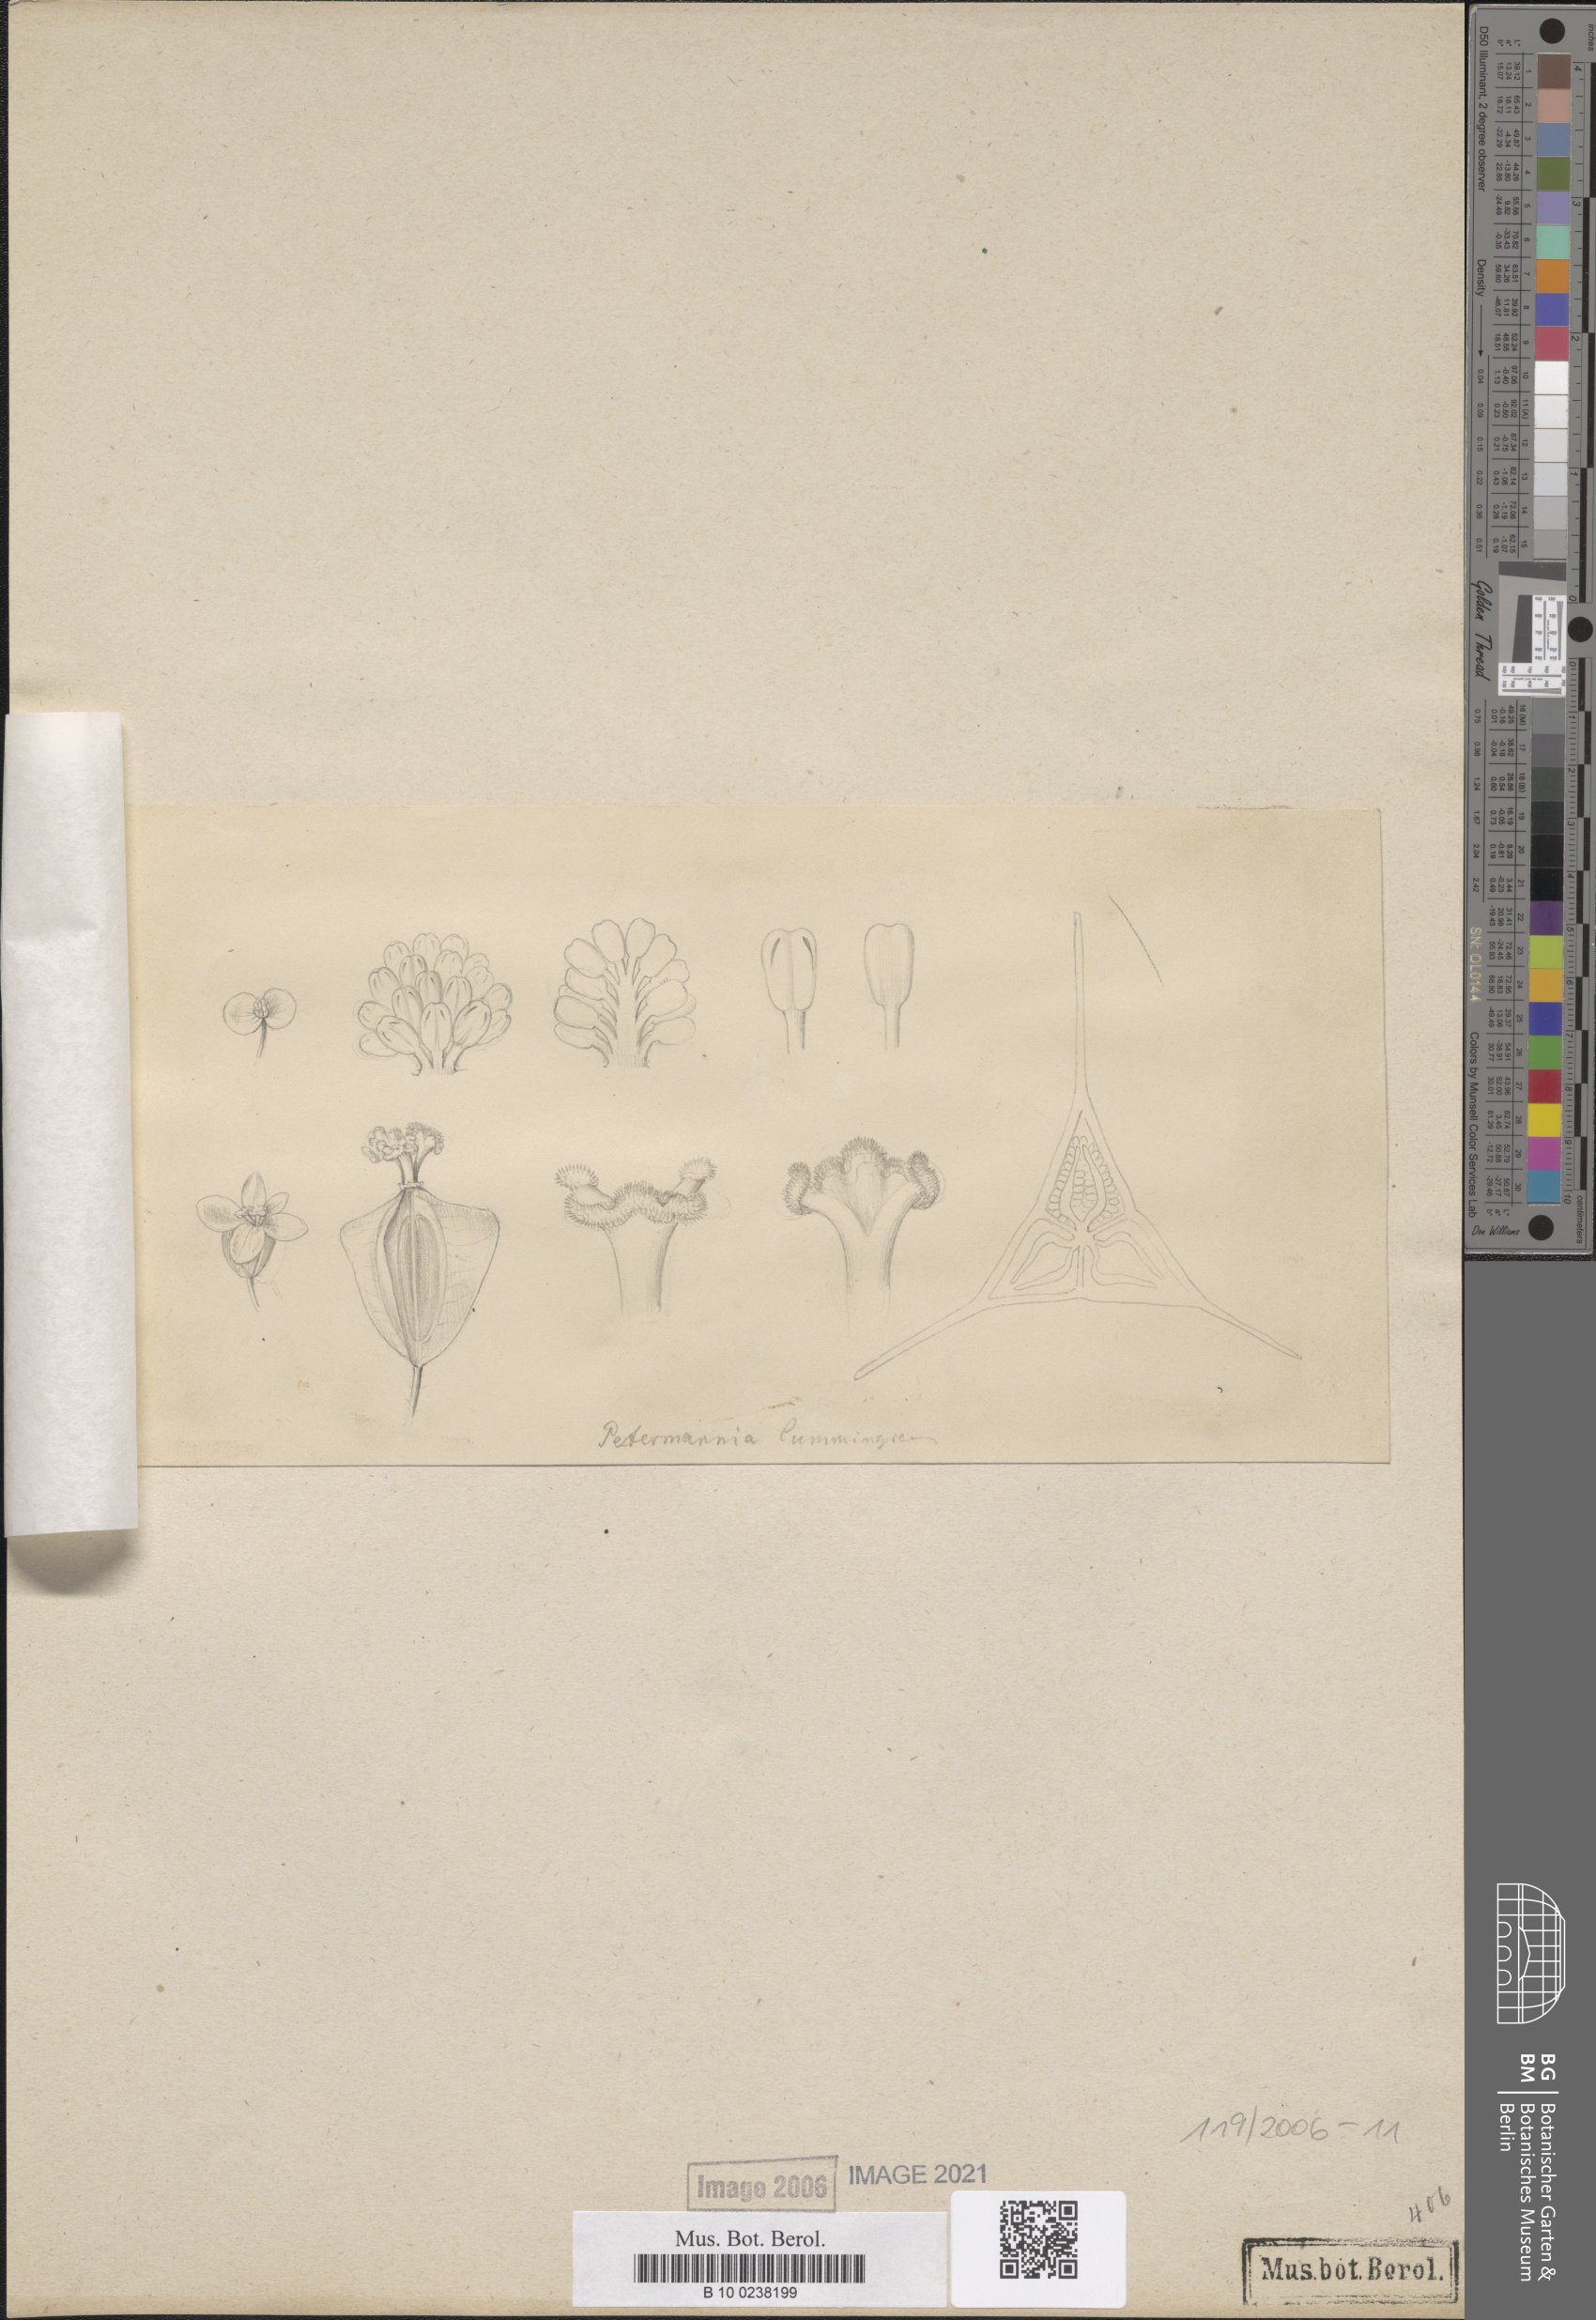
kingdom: Plantae
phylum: Tracheophyta
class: Magnoliopsida
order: Cucurbitales
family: Begoniaceae
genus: Begonia
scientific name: Begonia cumingiana
